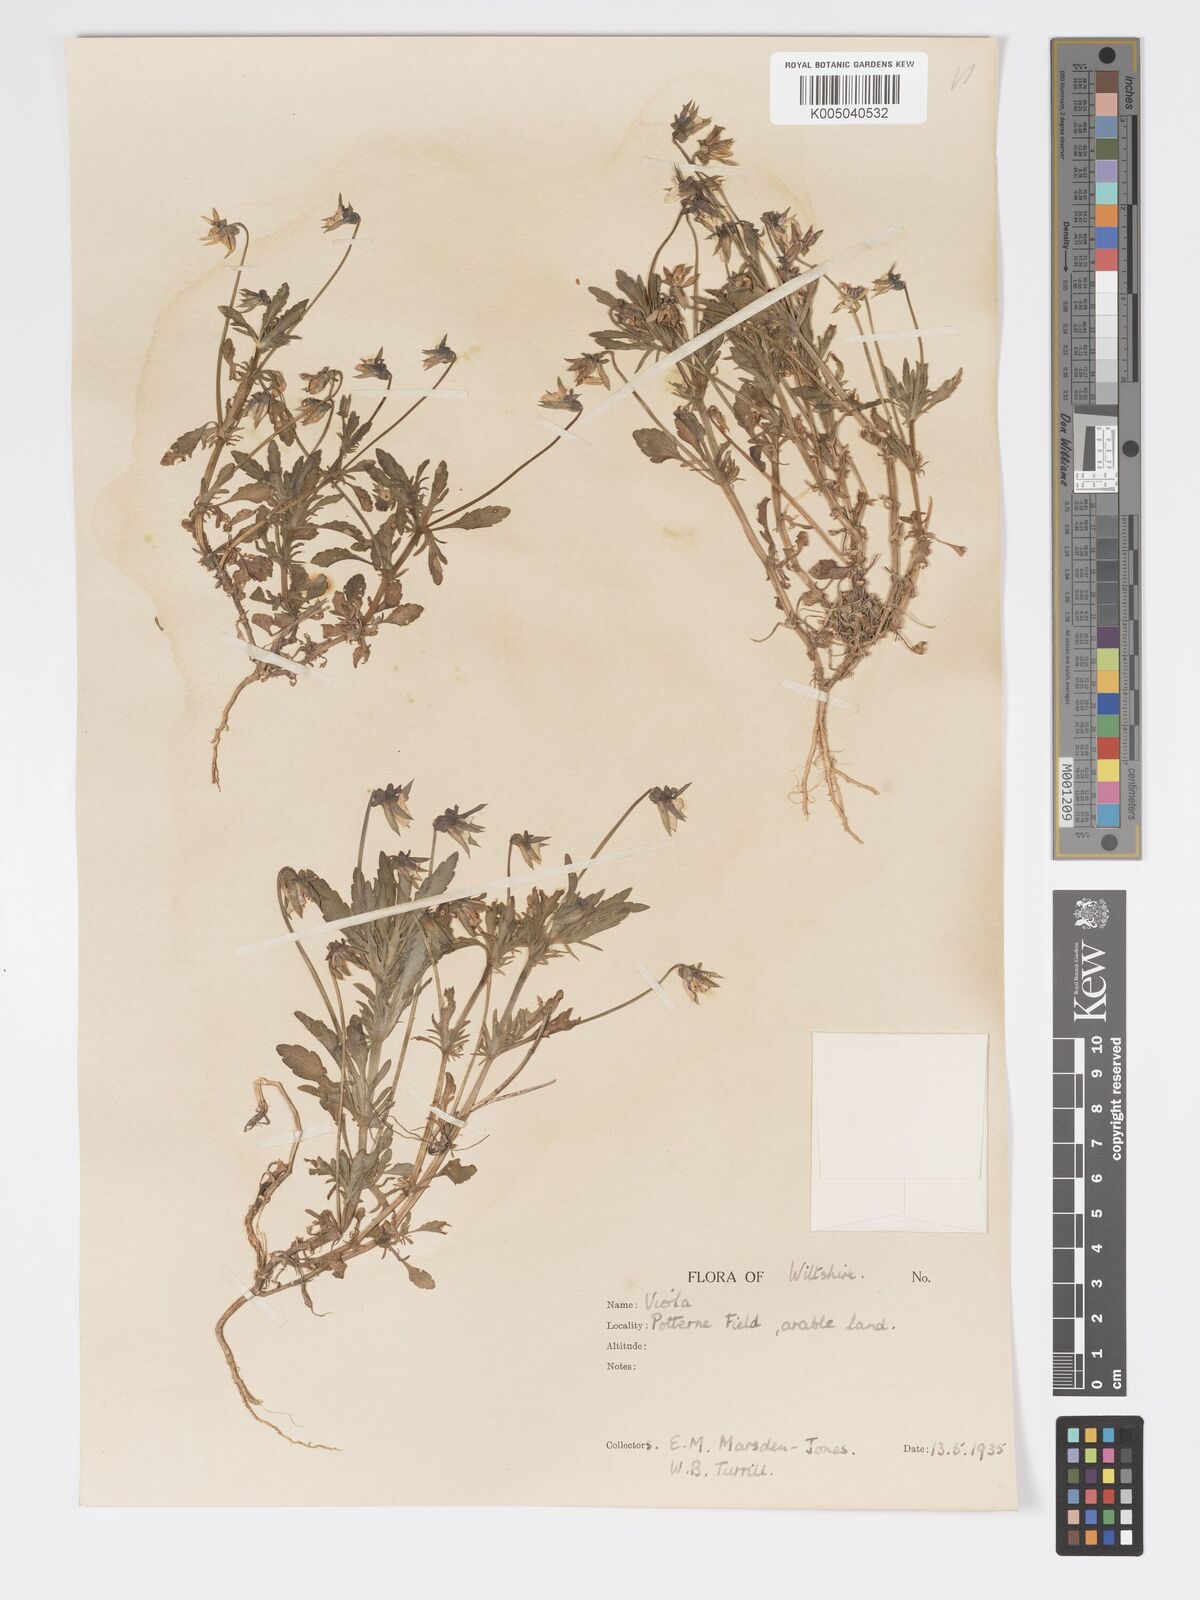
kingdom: Plantae
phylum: Tracheophyta
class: Magnoliopsida
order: Malpighiales
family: Violaceae
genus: Viola
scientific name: Viola
